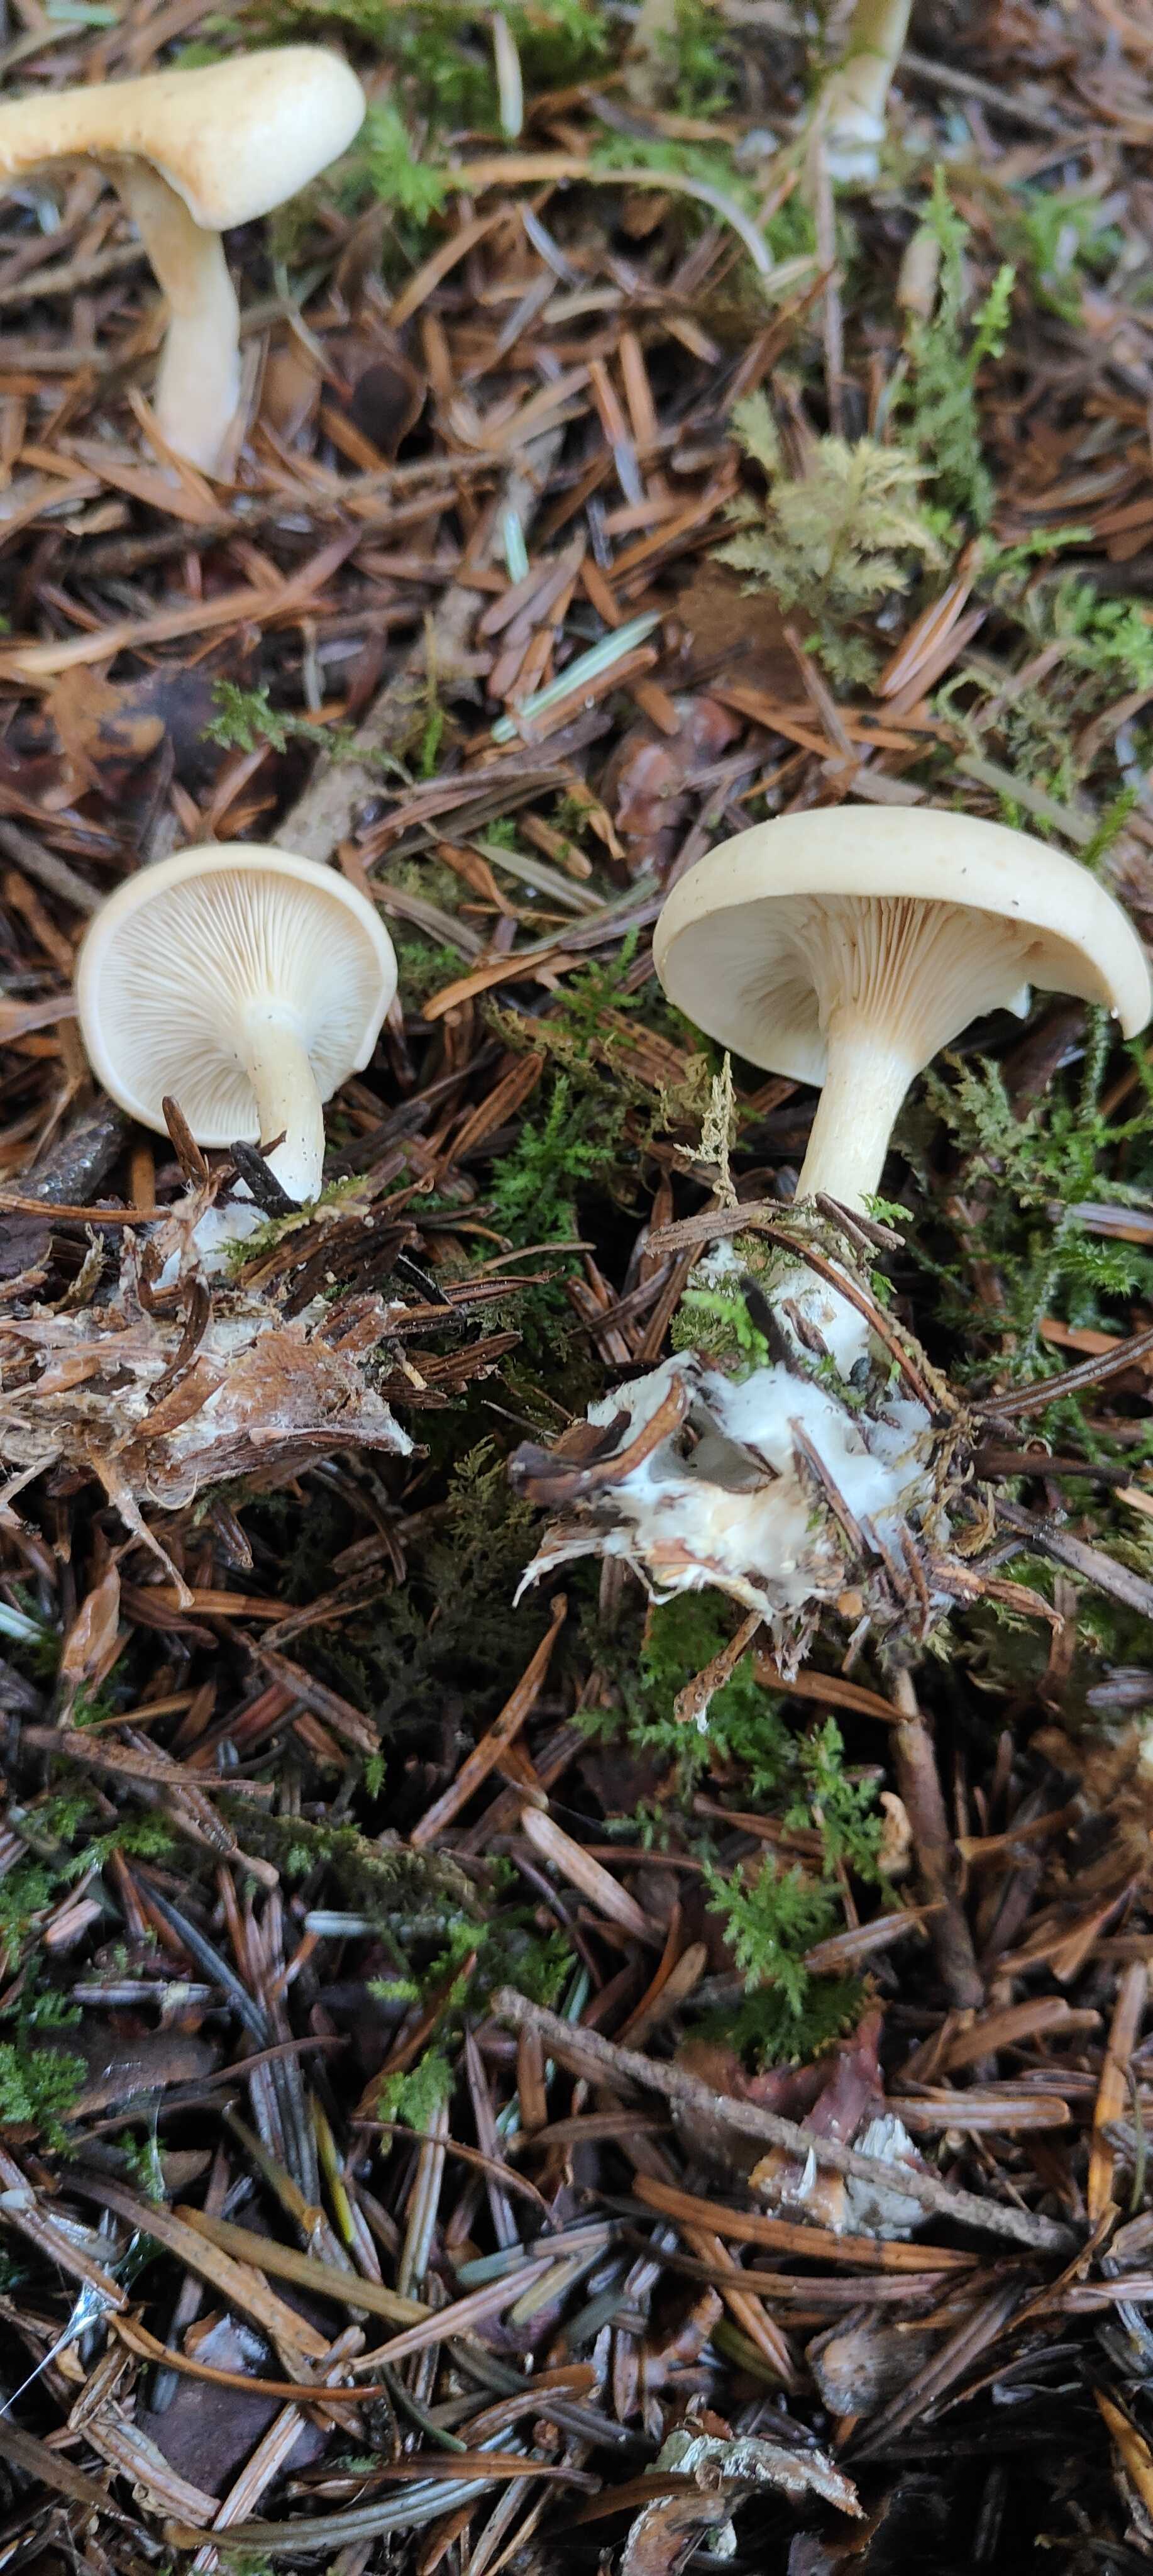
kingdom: Fungi
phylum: Basidiomycota
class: Agaricomycetes
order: Agaricales
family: Tricholomataceae
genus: Paralepista
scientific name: Paralepista gilva
